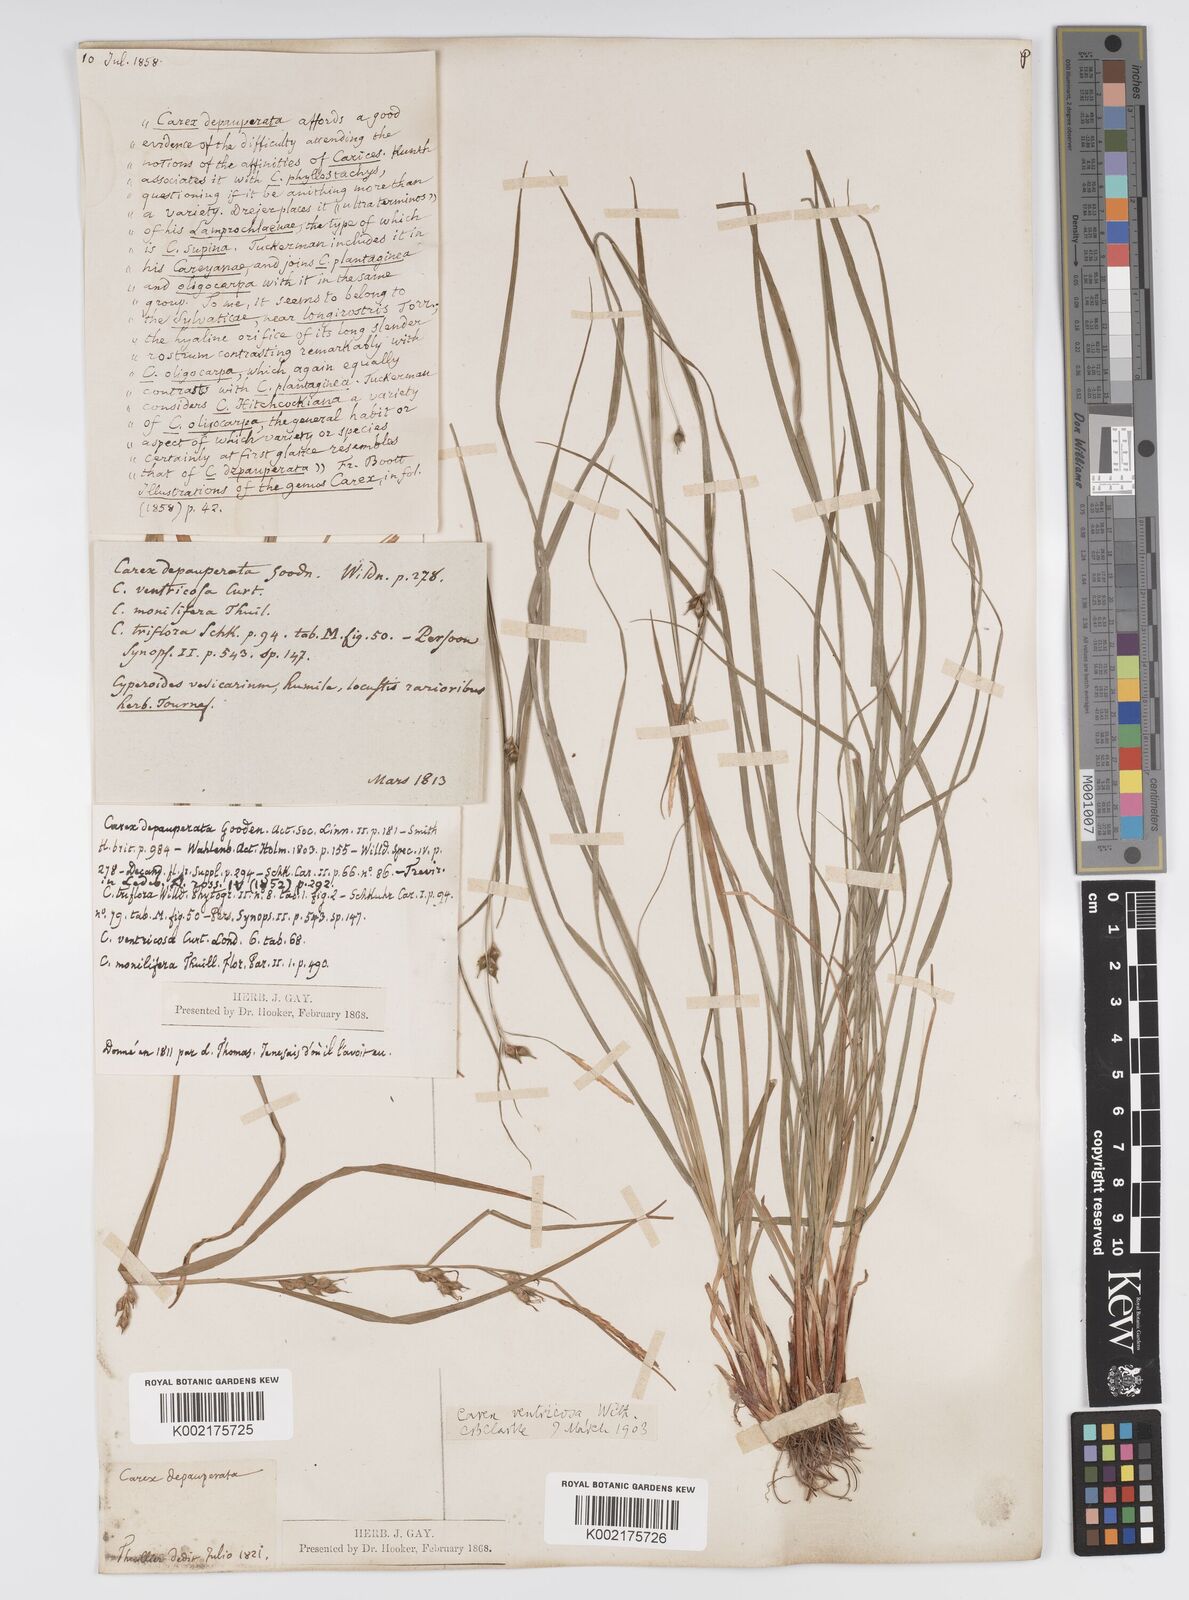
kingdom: Plantae
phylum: Tracheophyta
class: Liliopsida
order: Poales
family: Cyperaceae
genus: Carex
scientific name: Carex
